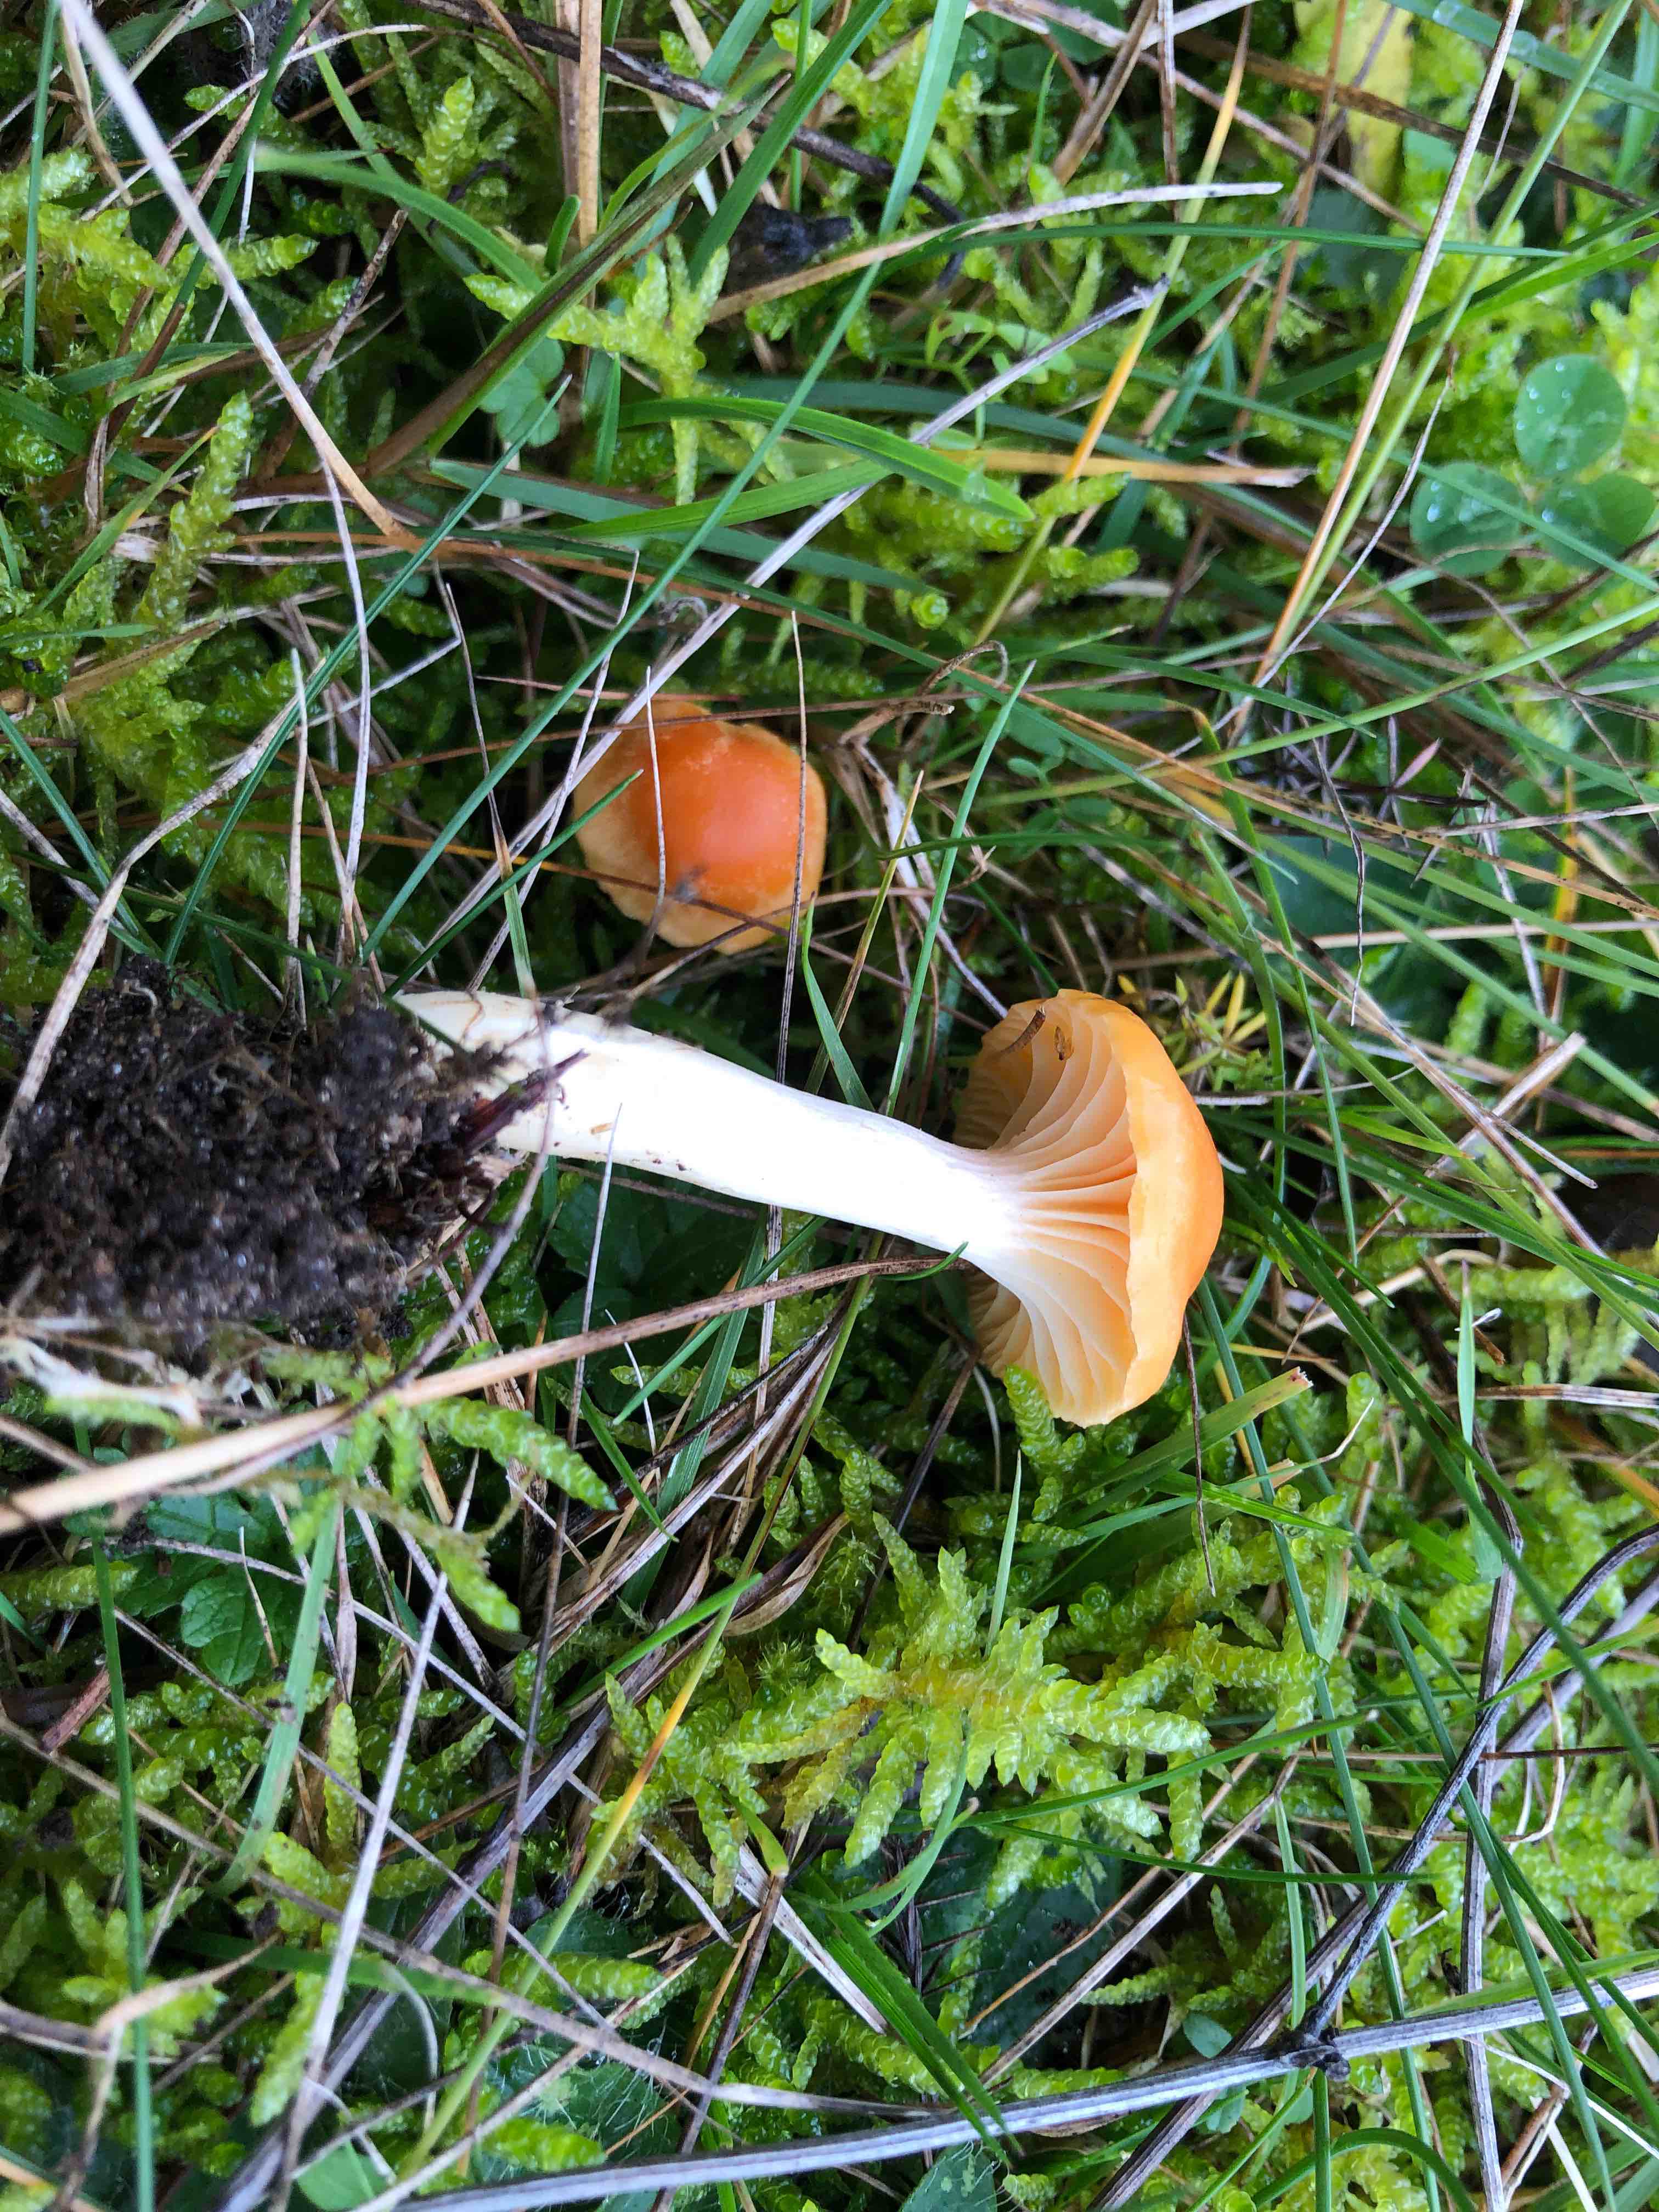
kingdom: Fungi
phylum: Basidiomycota
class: Agaricomycetes
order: Agaricales
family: Hygrophoraceae
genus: Cuphophyllus
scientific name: Cuphophyllus pratensis
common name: eng-vokshat
